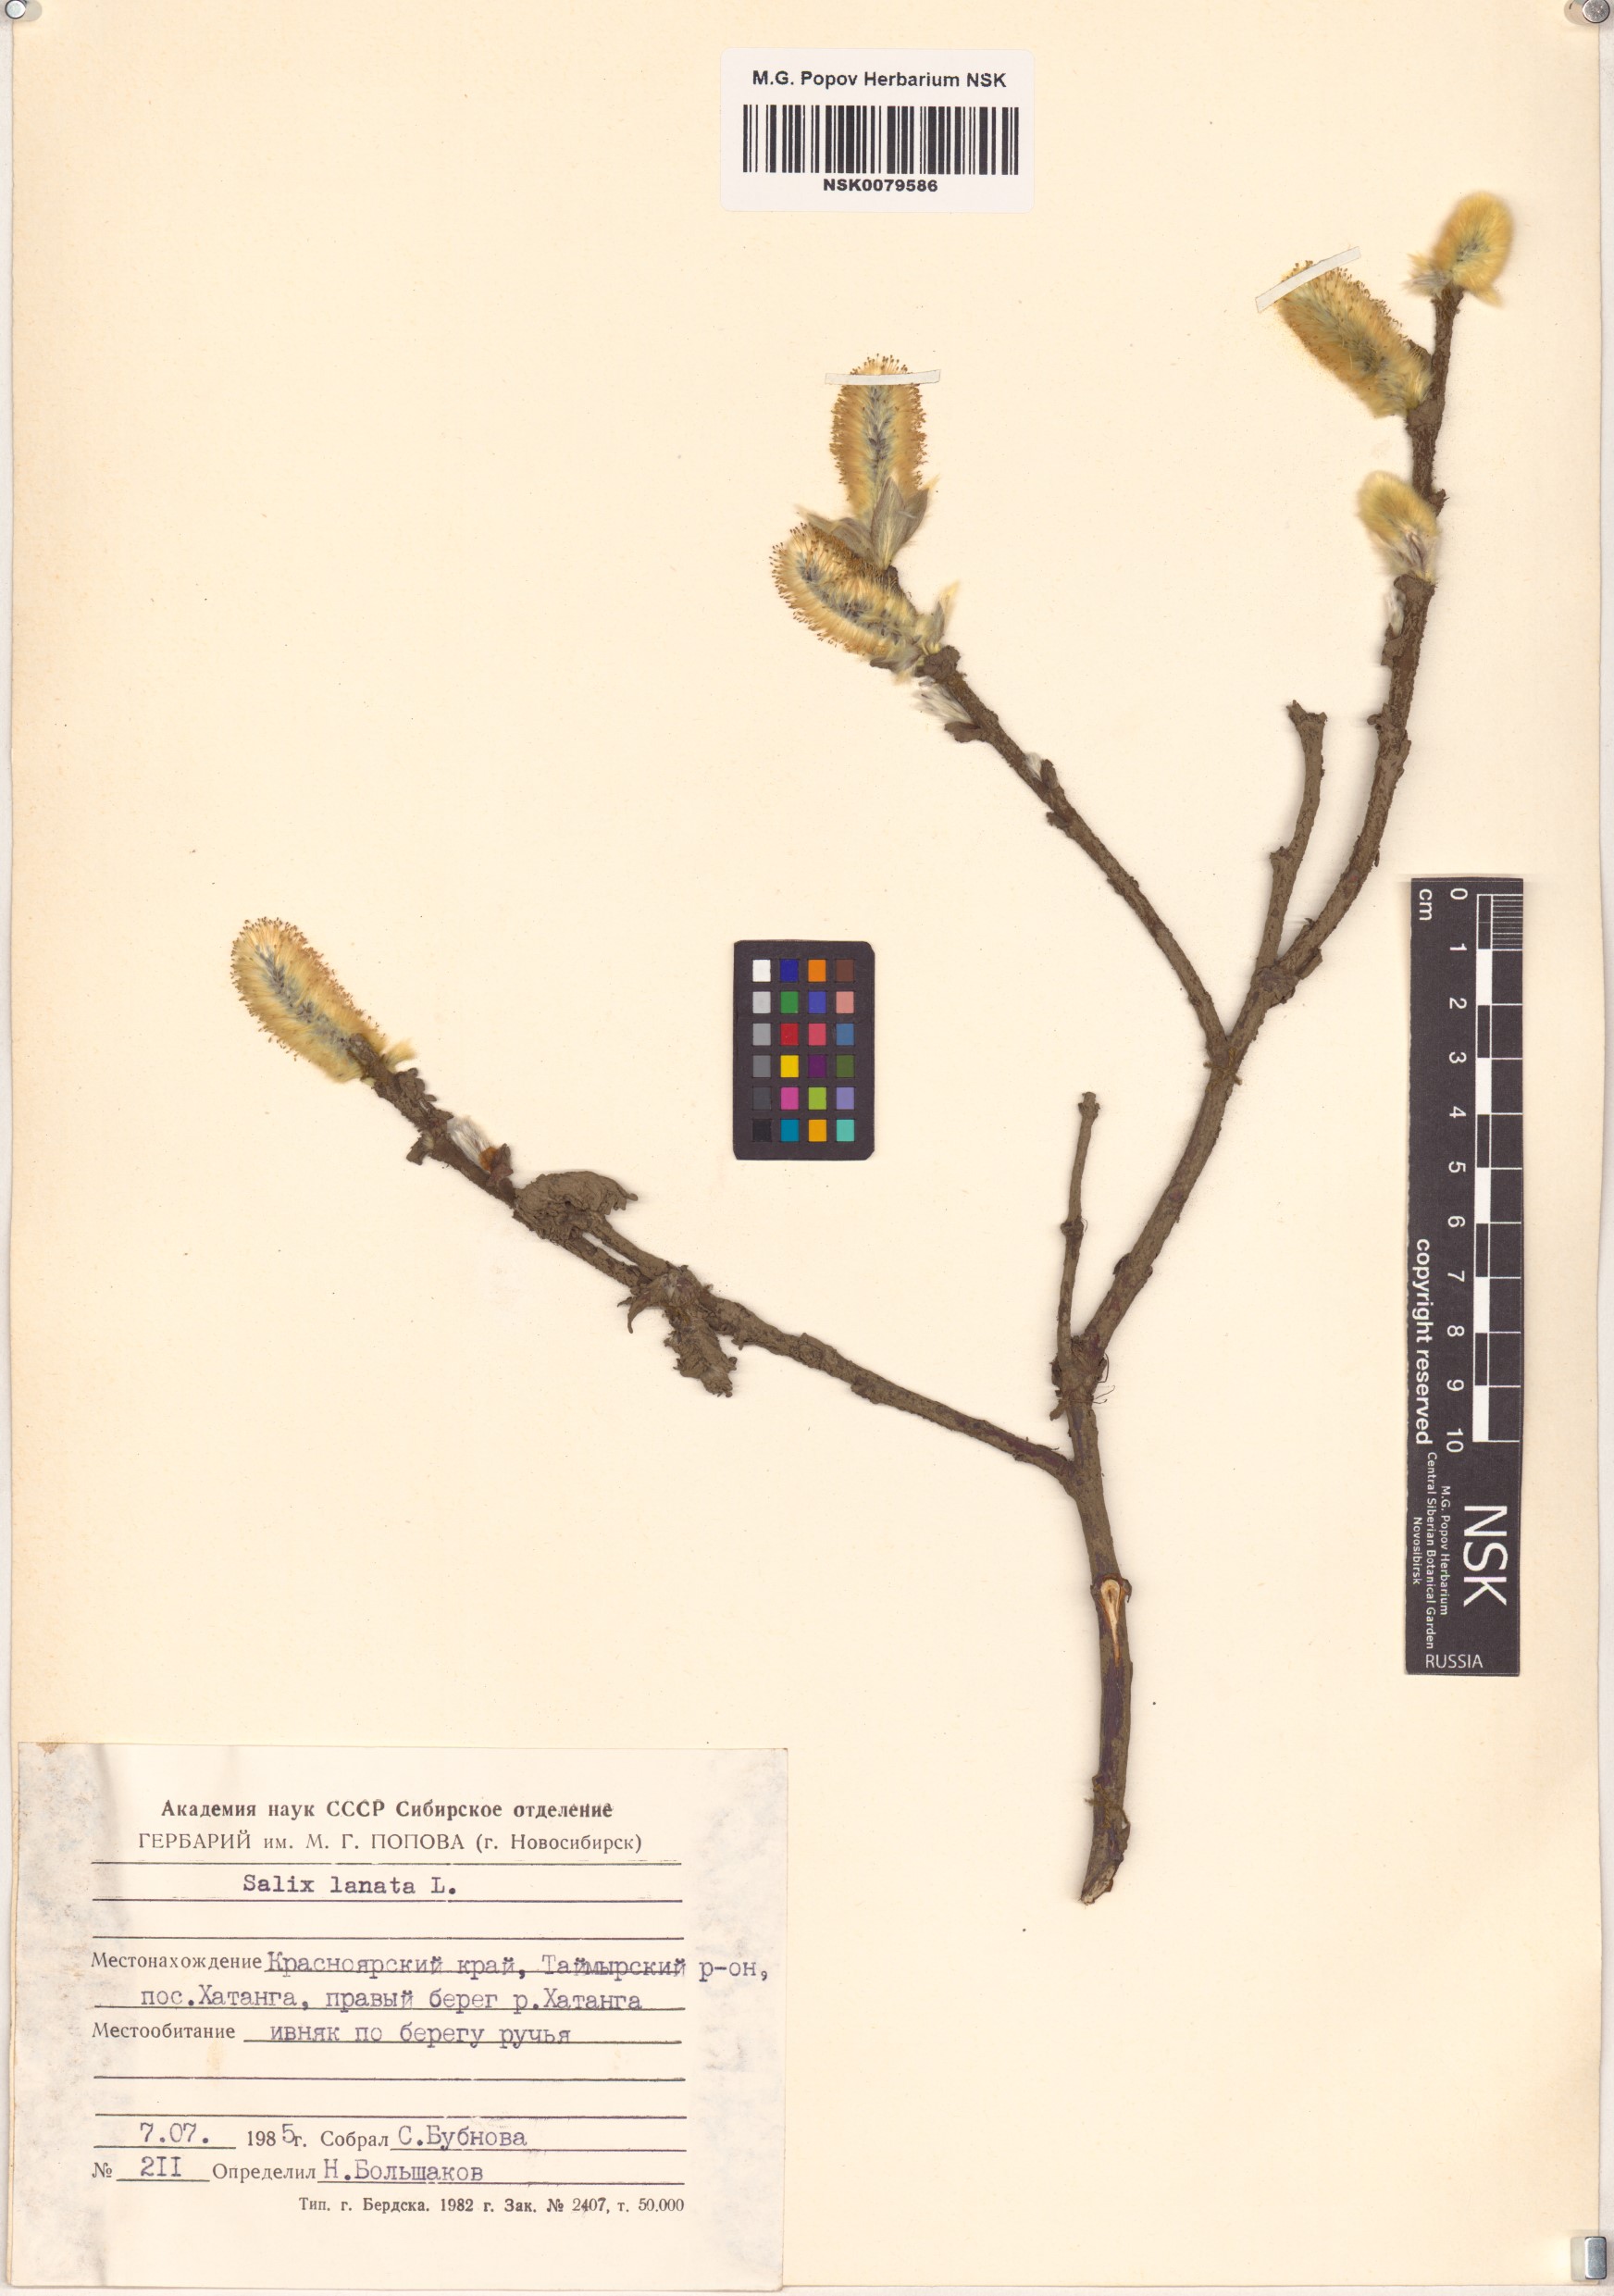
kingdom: Plantae
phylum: Tracheophyta
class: Magnoliopsida
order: Malpighiales
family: Salicaceae
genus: Salix
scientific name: Salix lanata
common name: Woolly willow
